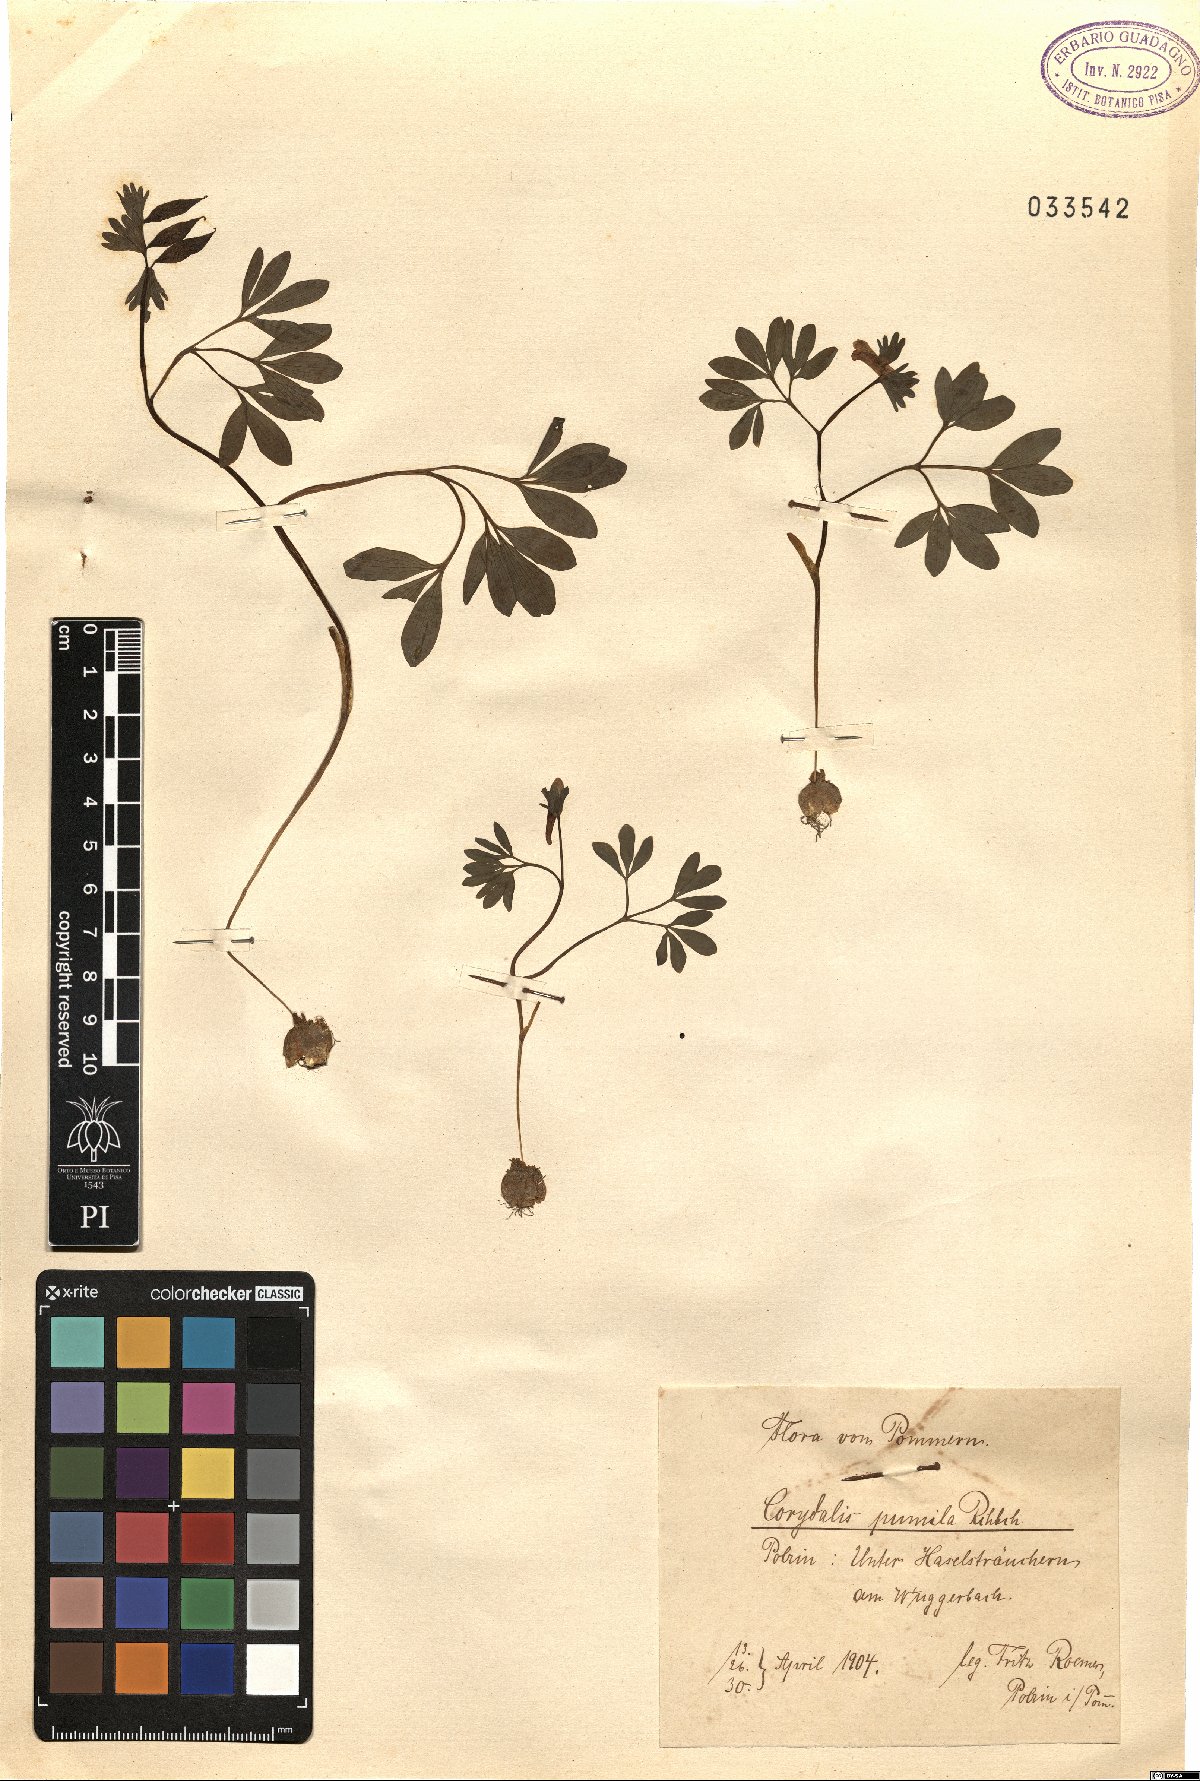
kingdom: Plantae
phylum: Tracheophyta
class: Magnoliopsida
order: Ranunculales
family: Papaveraceae
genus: Corydalis
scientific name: Corydalis pumila
